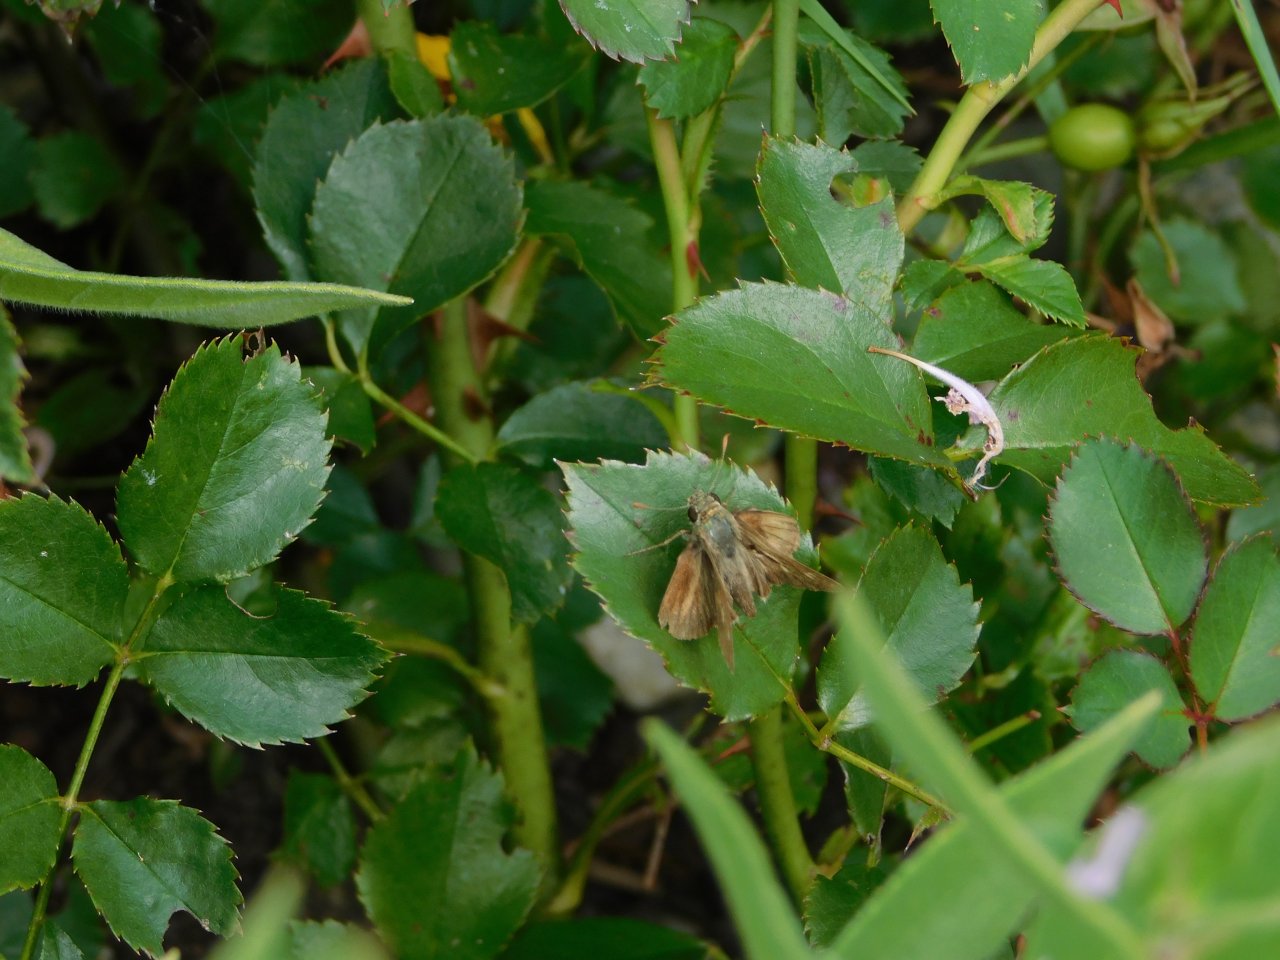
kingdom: Animalia
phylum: Arthropoda
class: Insecta
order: Lepidoptera
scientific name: Lepidoptera
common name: Butterflies
